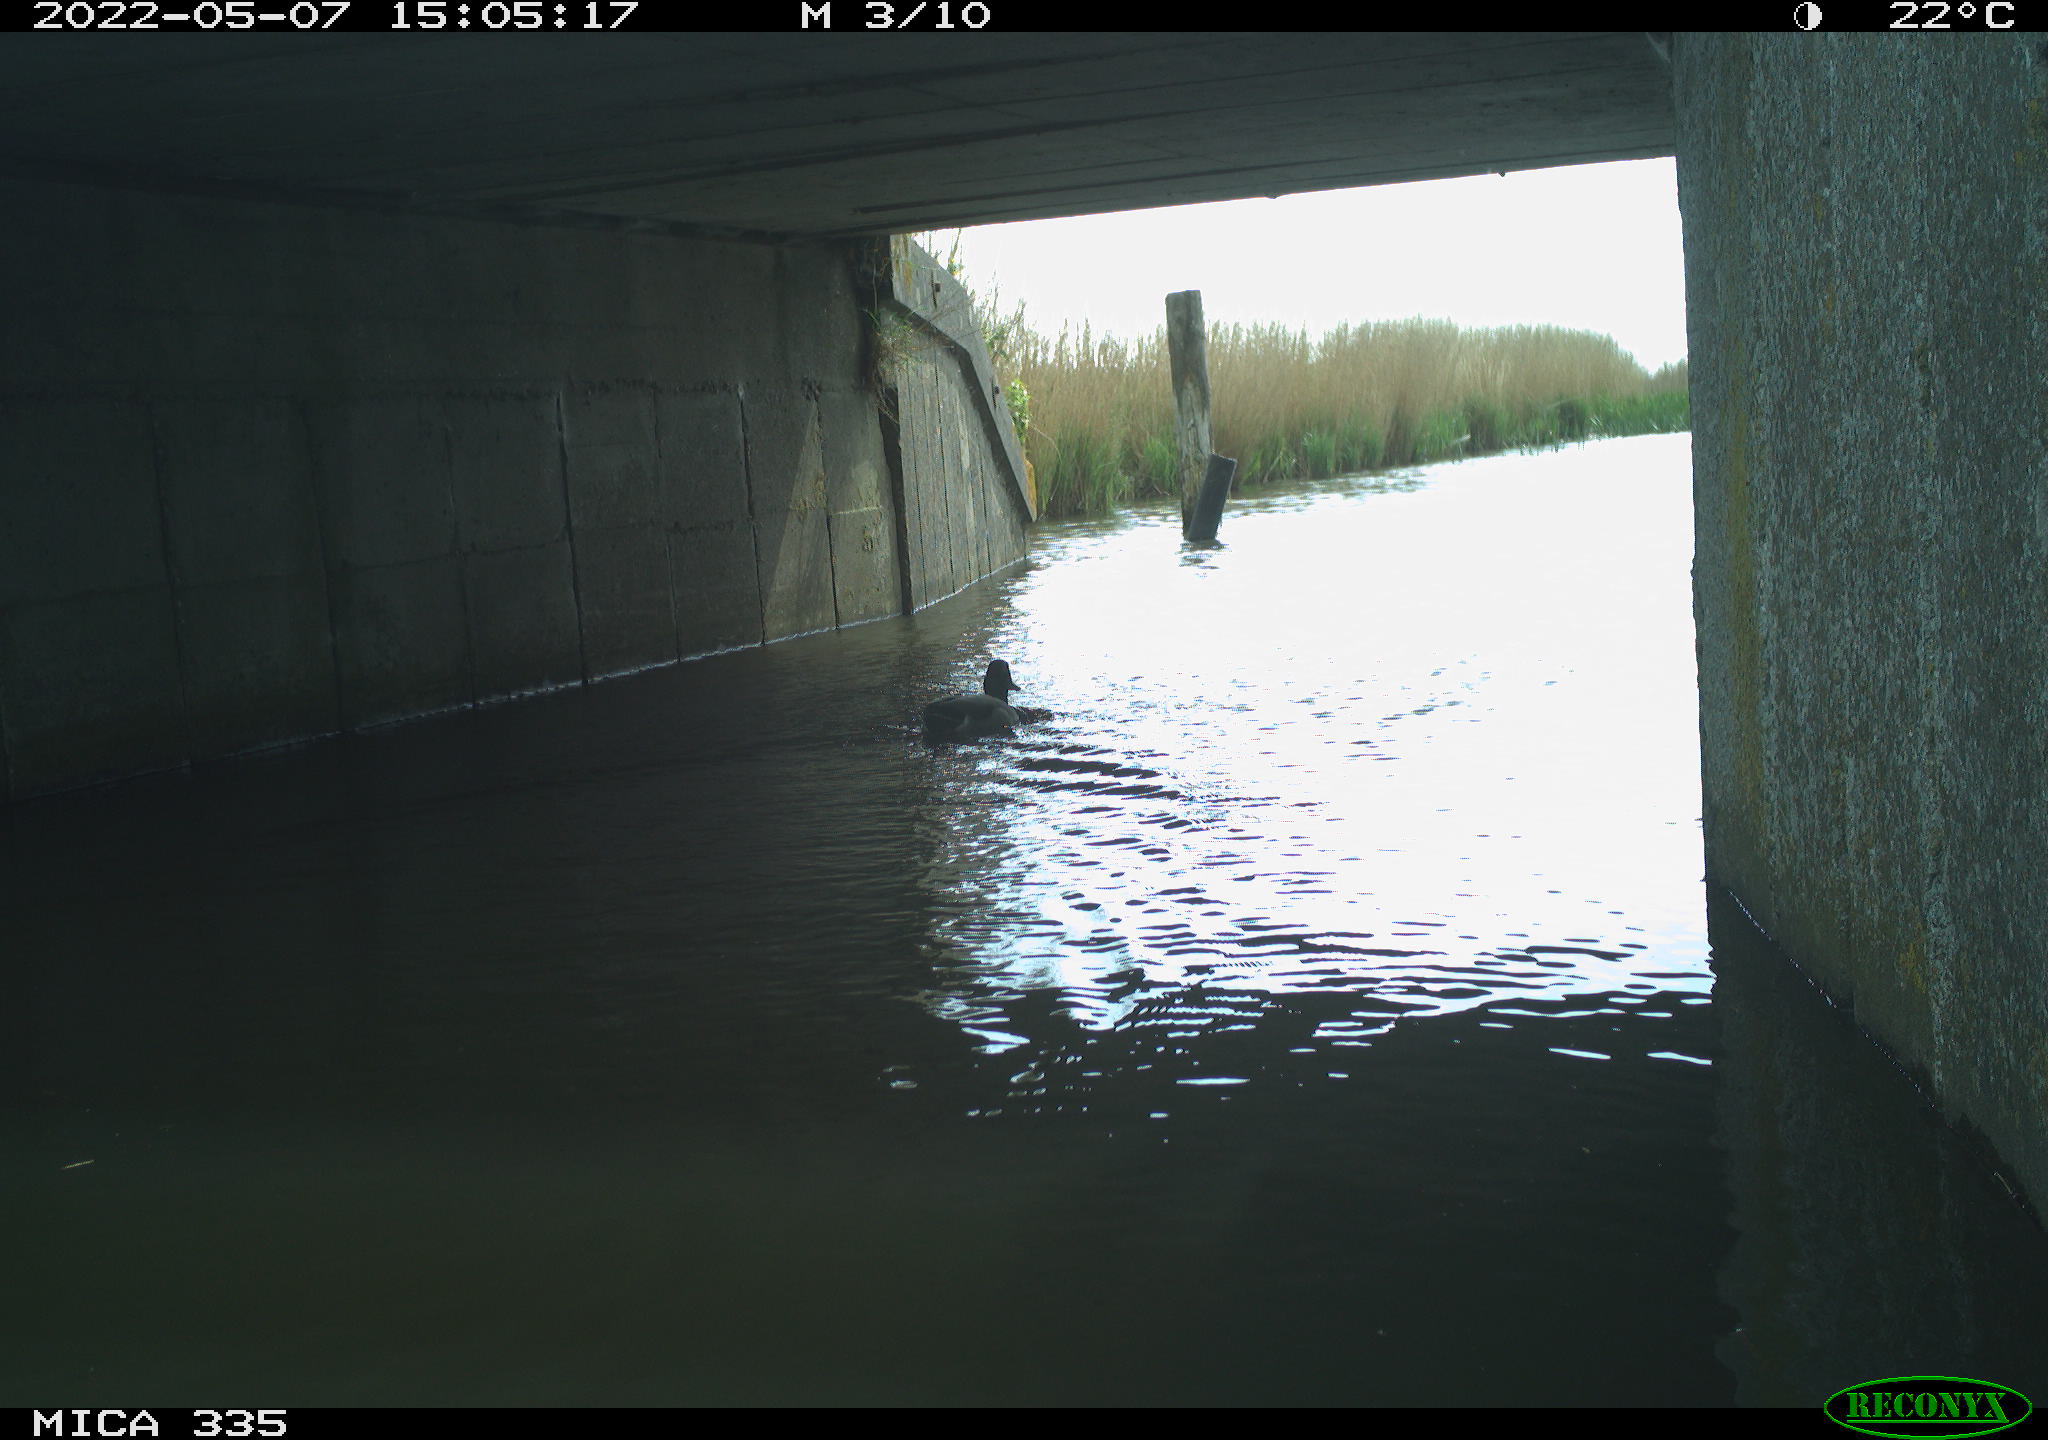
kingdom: Animalia
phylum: Chordata
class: Aves
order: Anseriformes
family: Anatidae
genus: Anas
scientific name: Anas platyrhynchos
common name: Mallard
